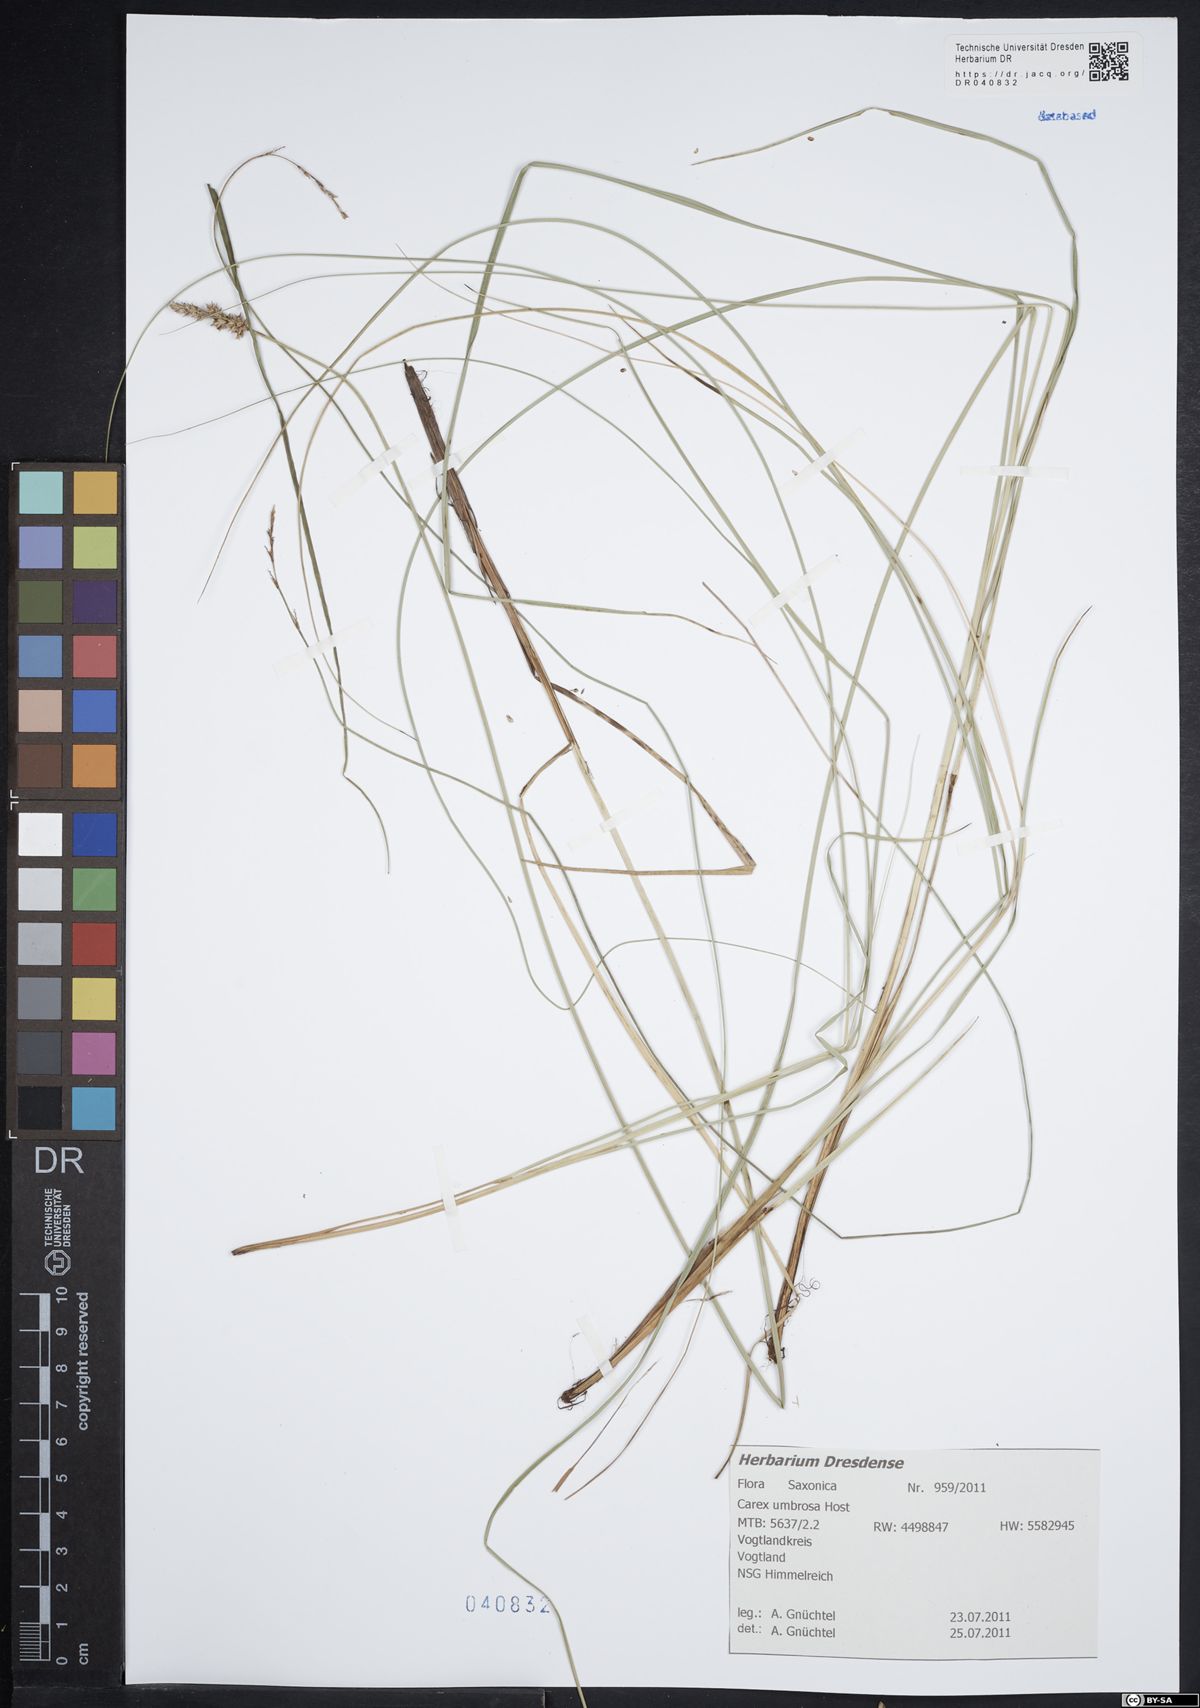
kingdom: Plantae
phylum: Tracheophyta
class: Liliopsida
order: Poales
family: Cyperaceae
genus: Carex
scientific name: Carex umbrosa
